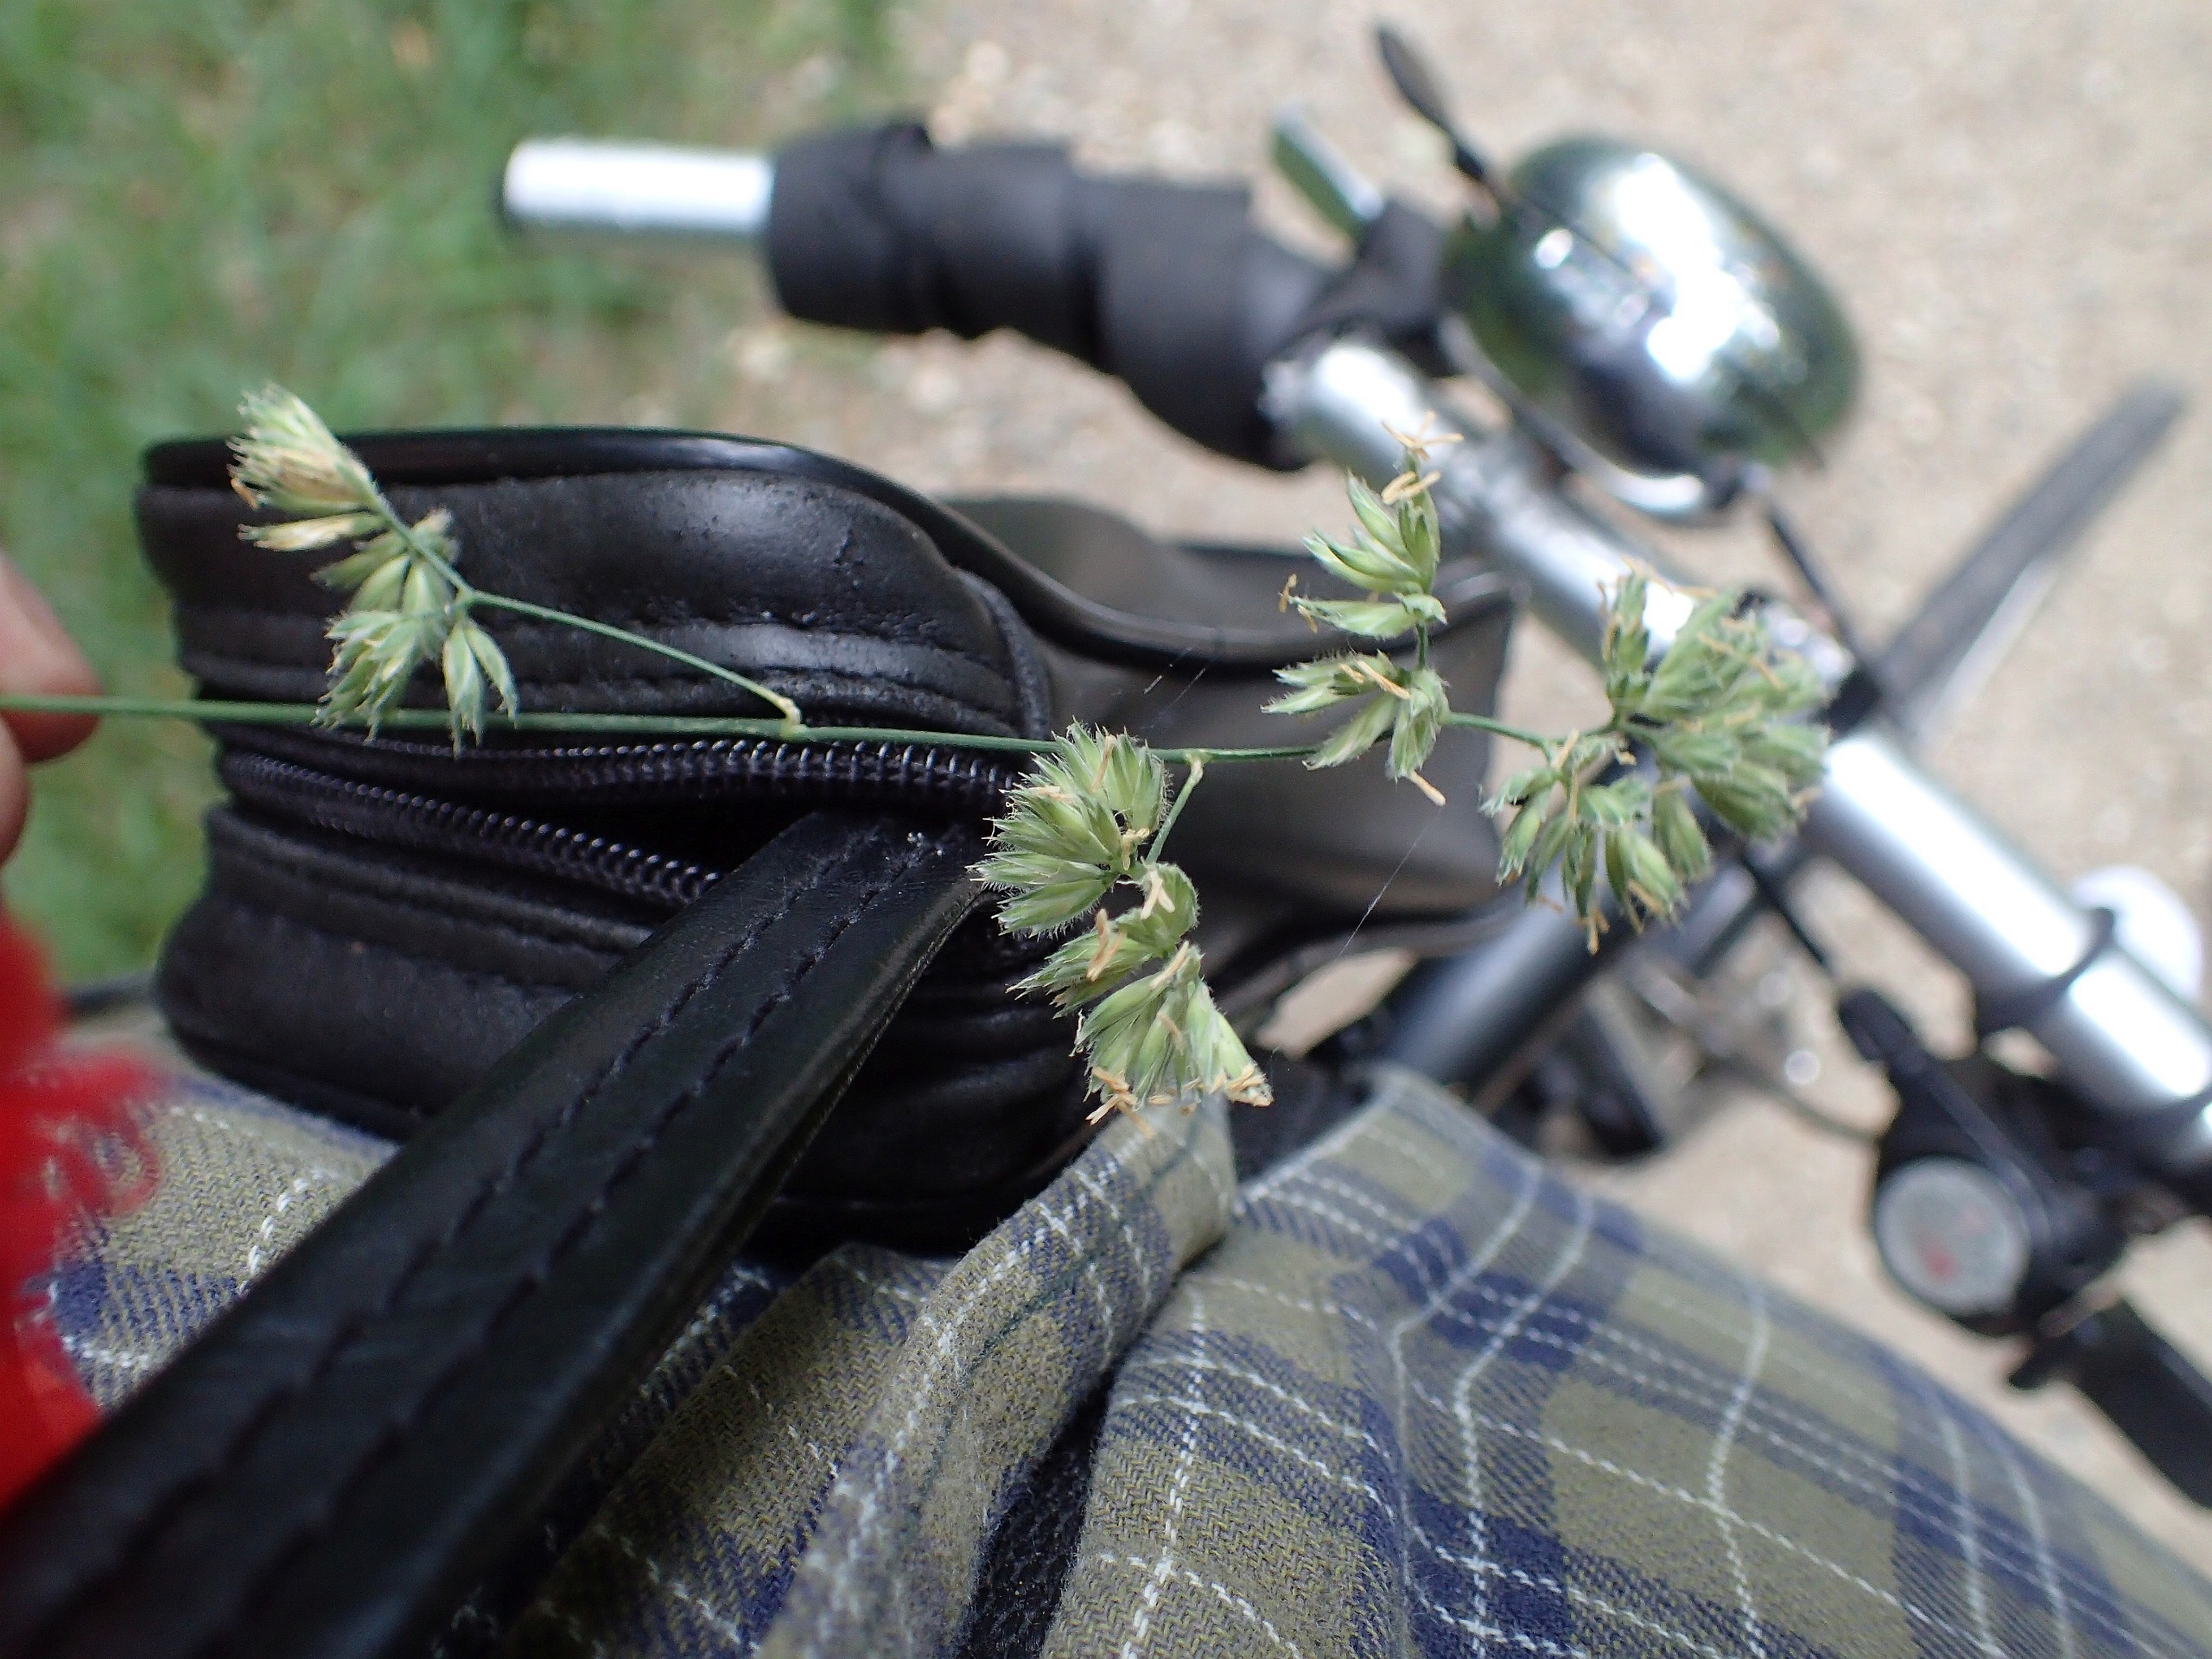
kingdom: Plantae
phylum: Tracheophyta
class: Liliopsida
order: Poales
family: Poaceae
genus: Dactylis
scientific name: Dactylis glomerata
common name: Almindelig hundegræs
